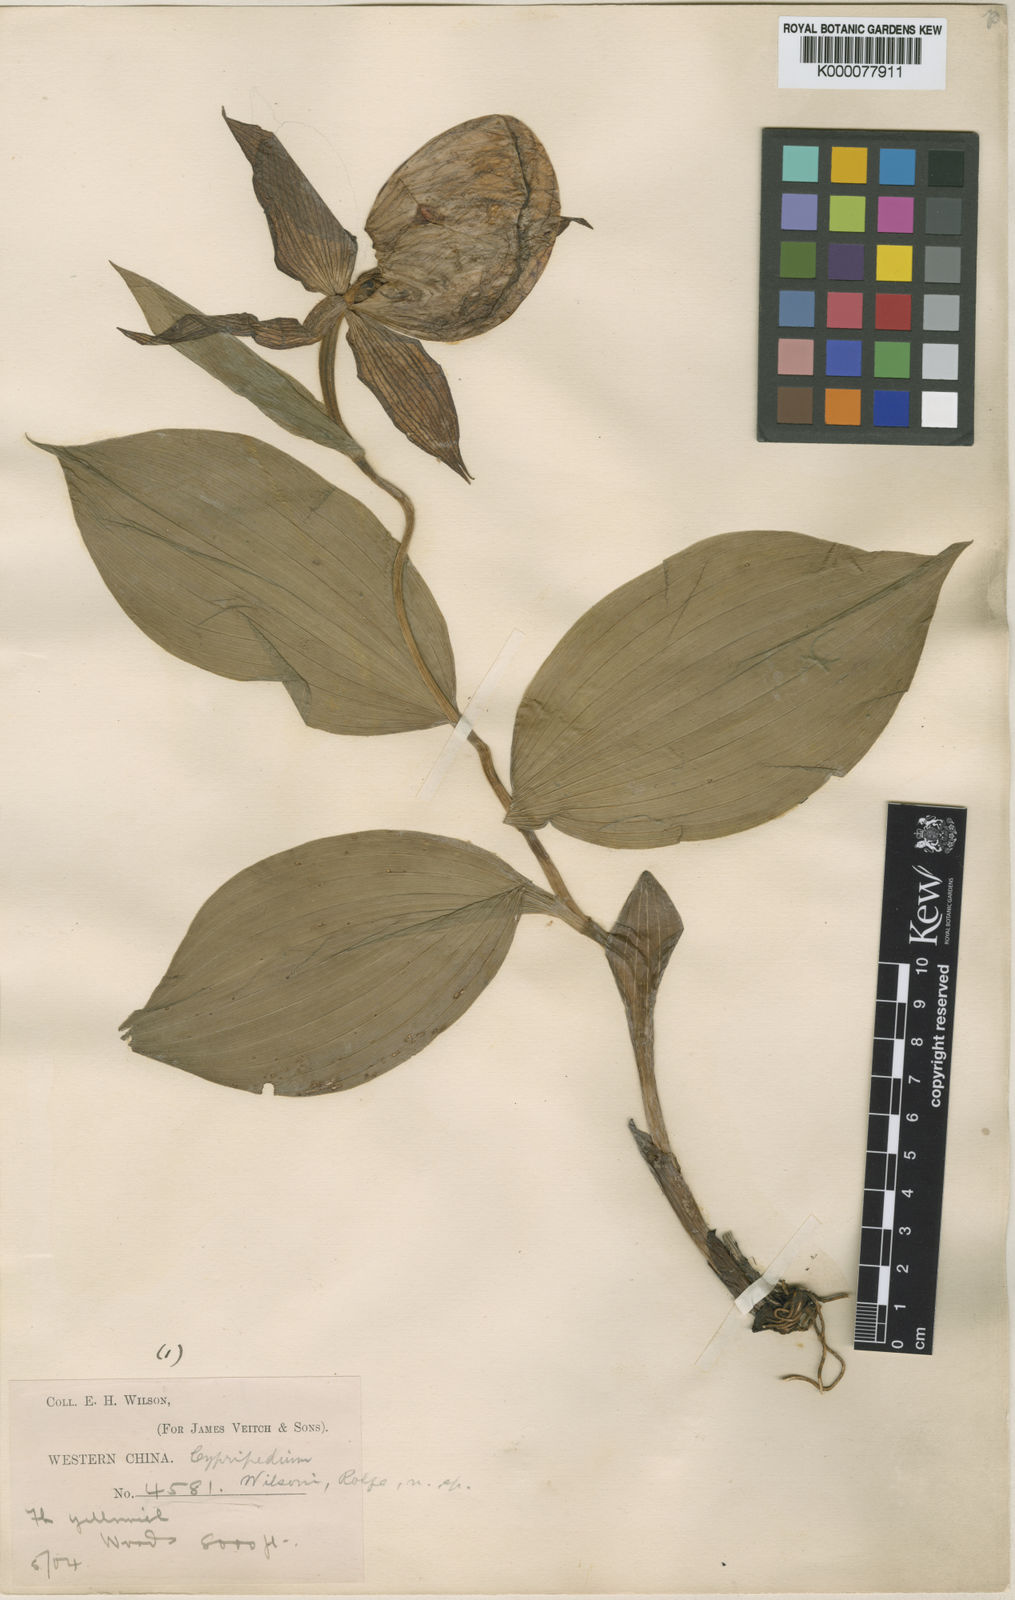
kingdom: Plantae
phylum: Tracheophyta
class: Liliopsida
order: Asparagales
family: Orchidaceae
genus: Cypripedium
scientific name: Cypripedium fasciolatum
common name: Striped lady slipper
